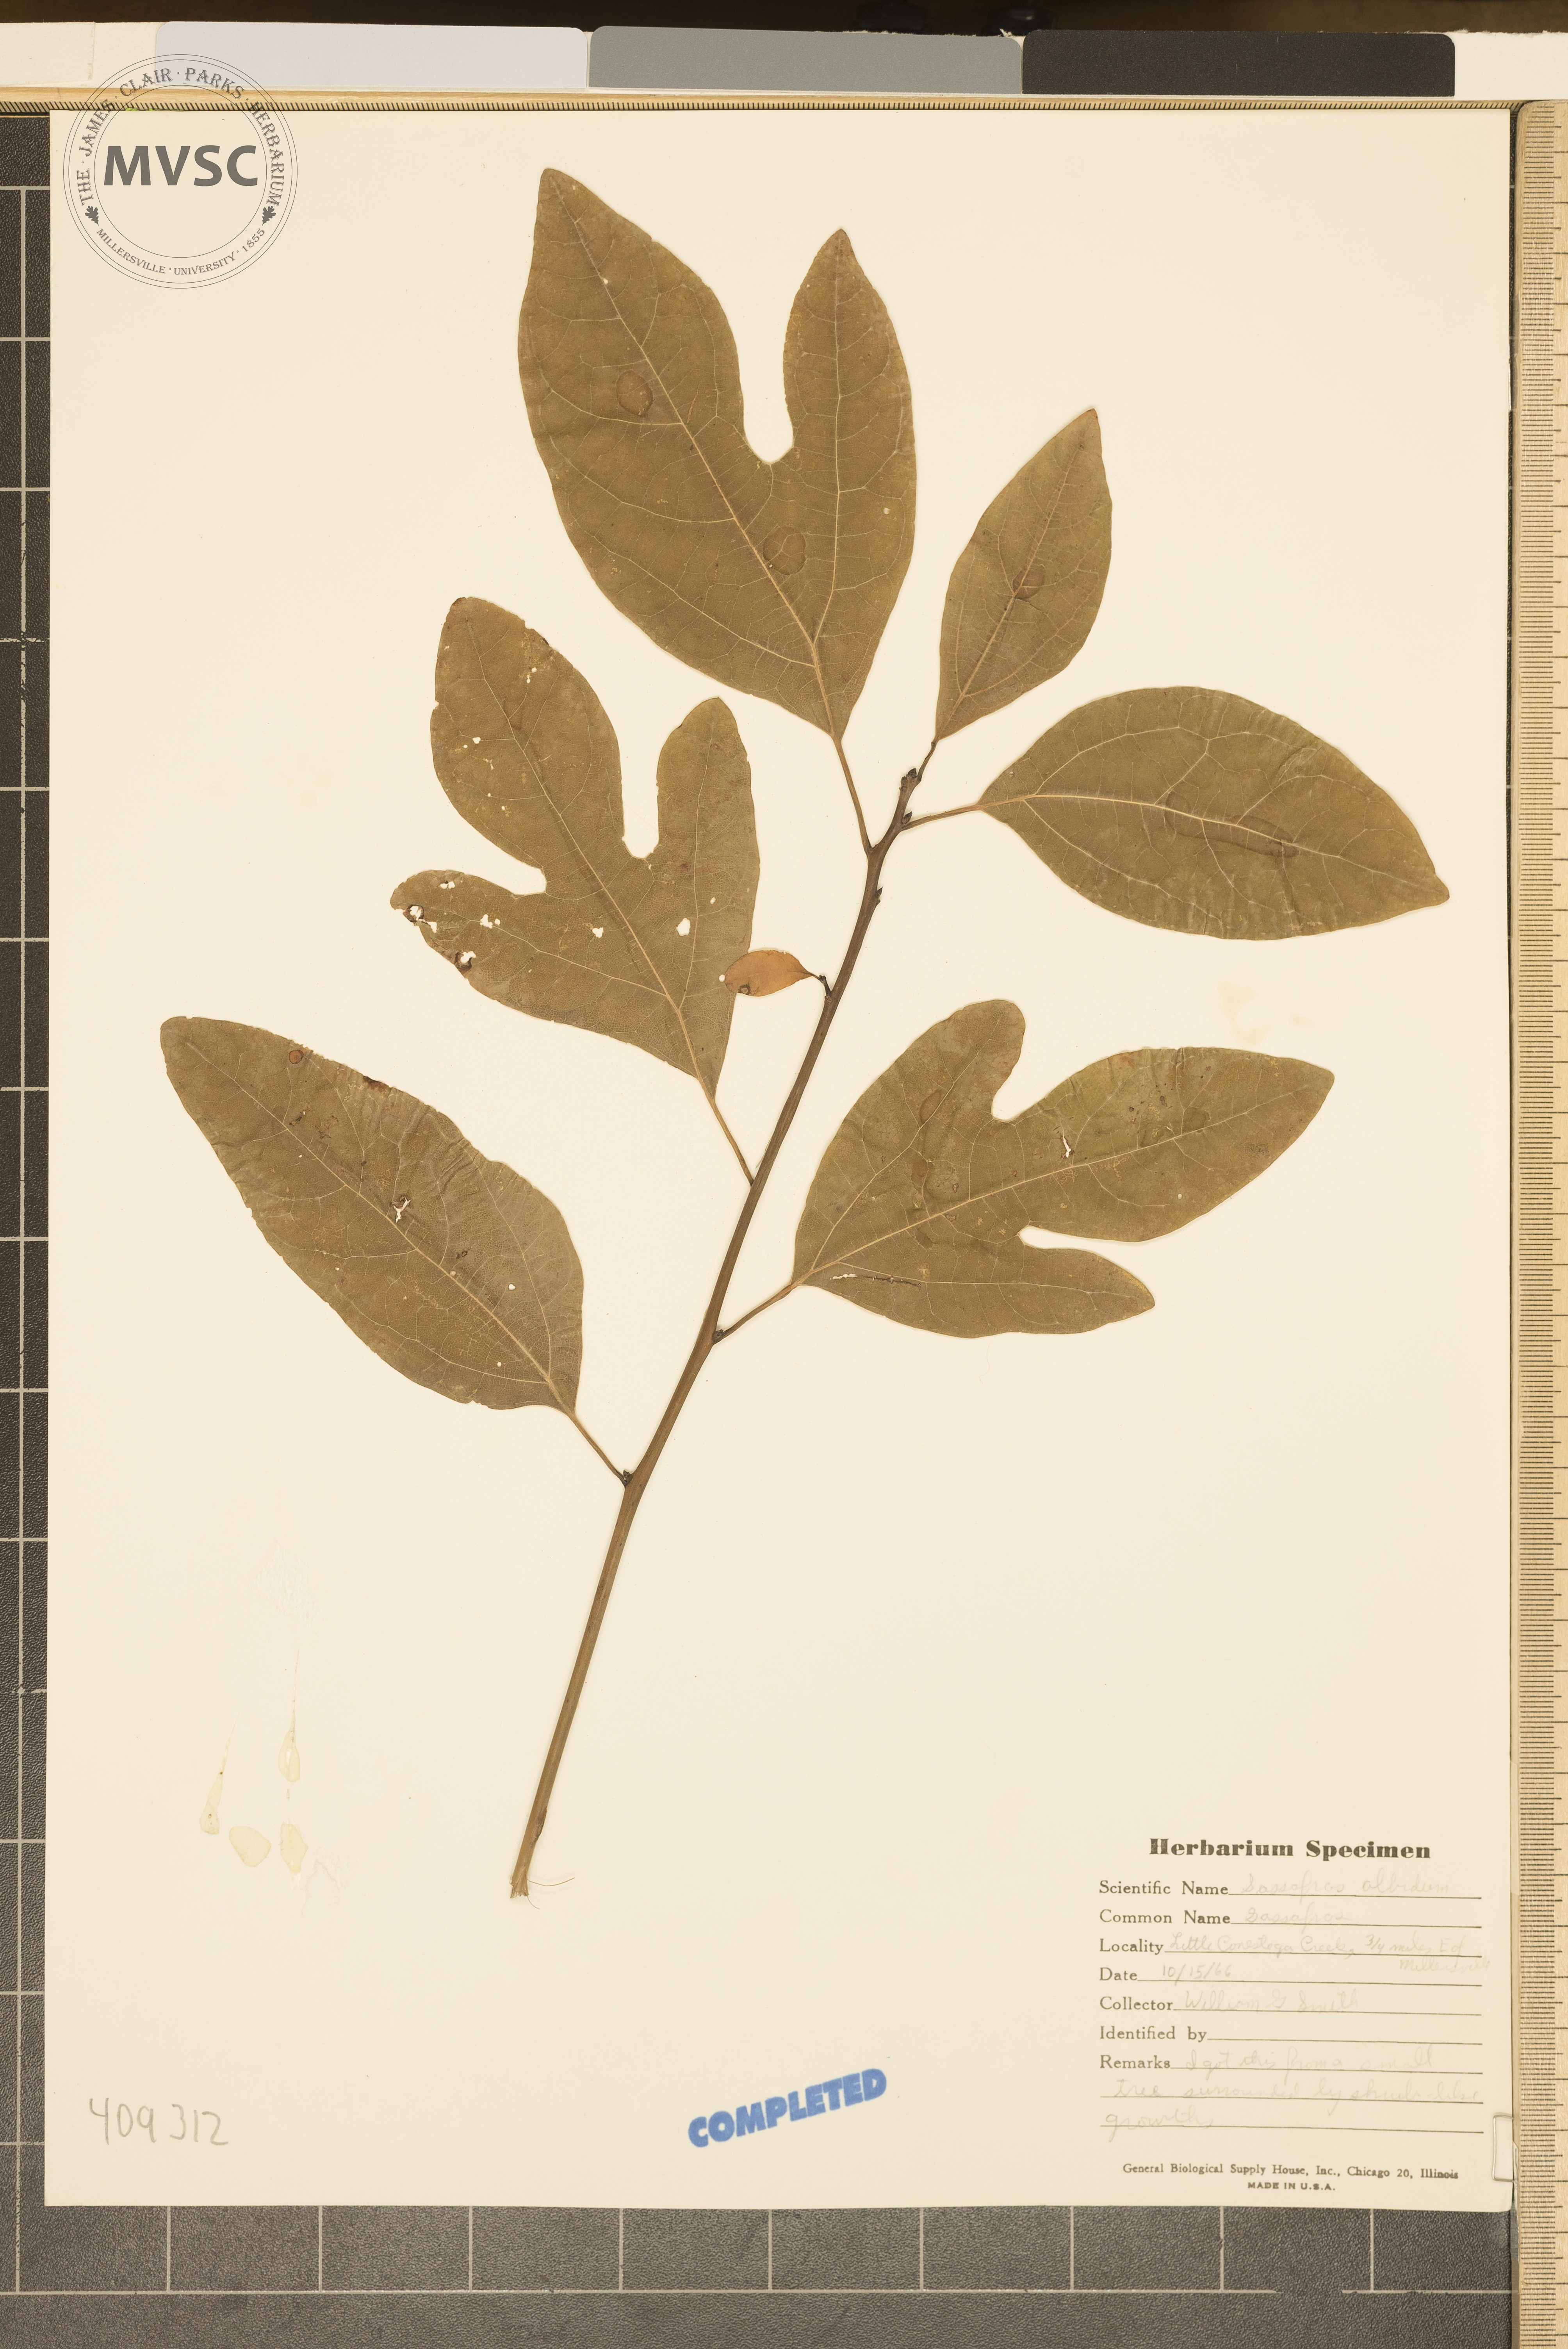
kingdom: Plantae
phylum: Tracheophyta
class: Magnoliopsida
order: Laurales
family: Lauraceae
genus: Sassafras
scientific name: Sassafras albidum
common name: Sassafras
